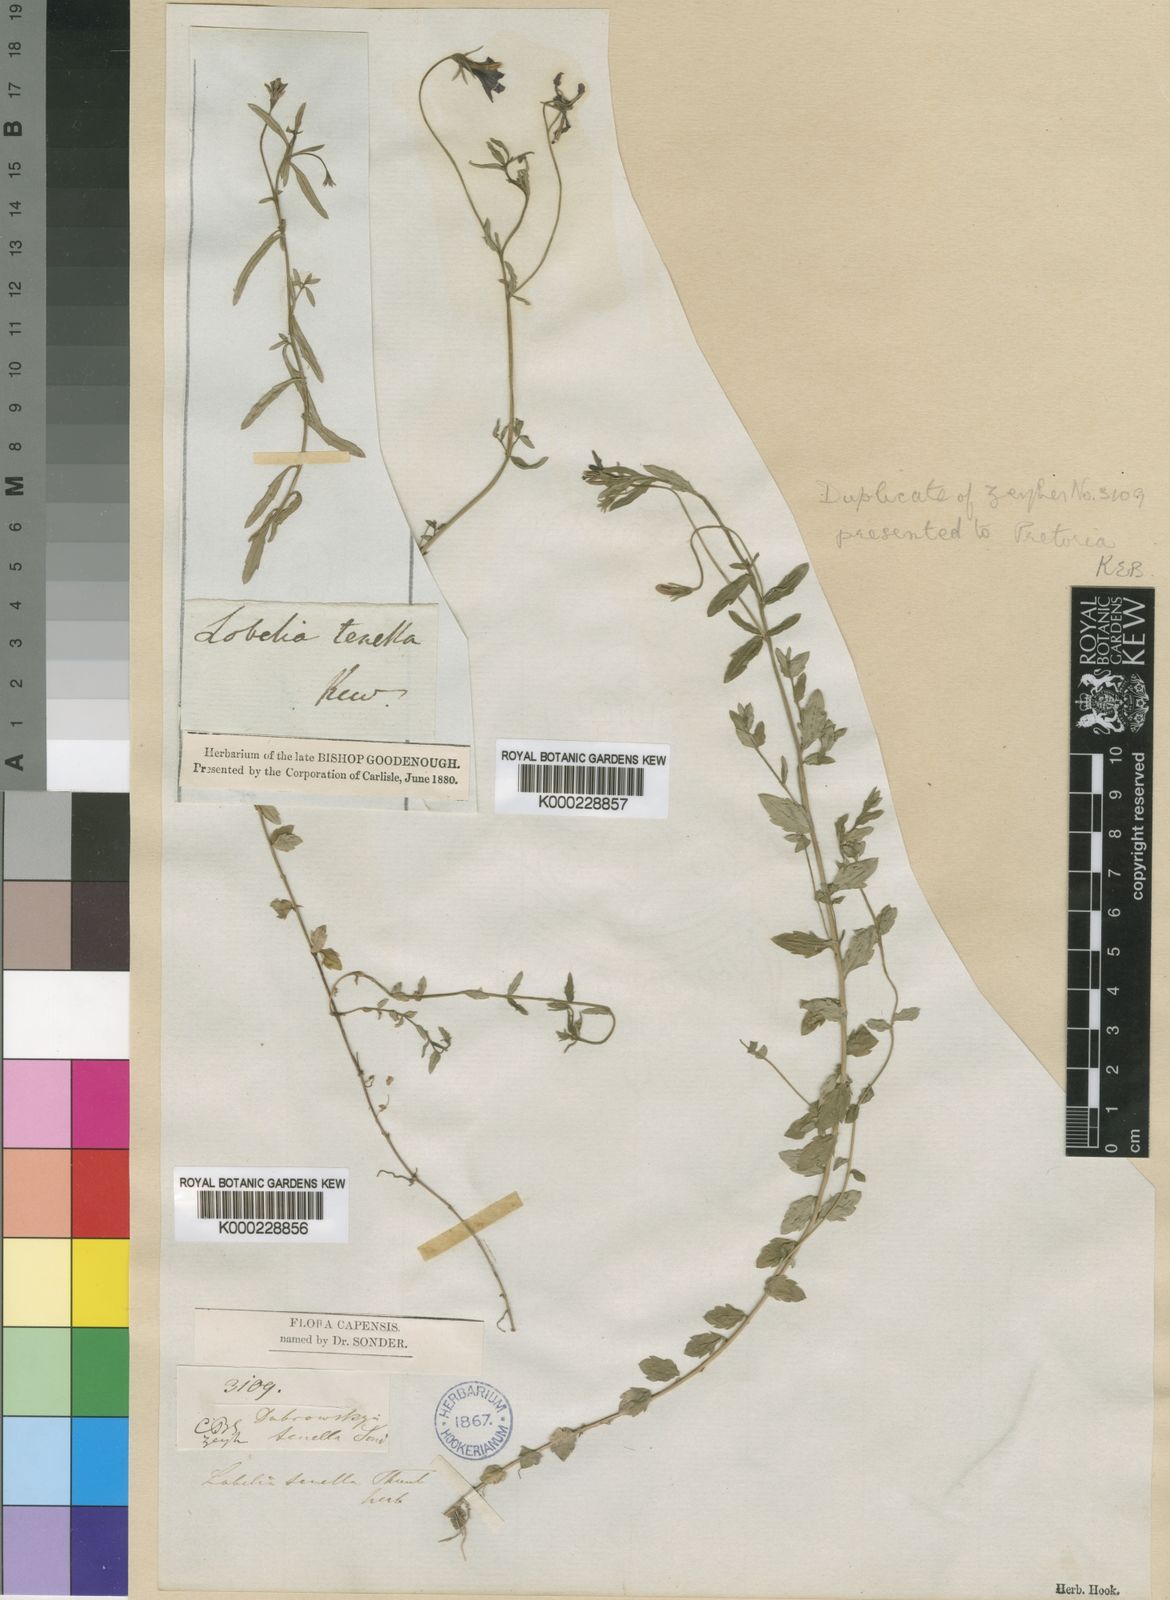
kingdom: Plantae
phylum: Tracheophyta
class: Magnoliopsida
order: Asterales
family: Campanulaceae
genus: Monopsis
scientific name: Monopsis unidentata
